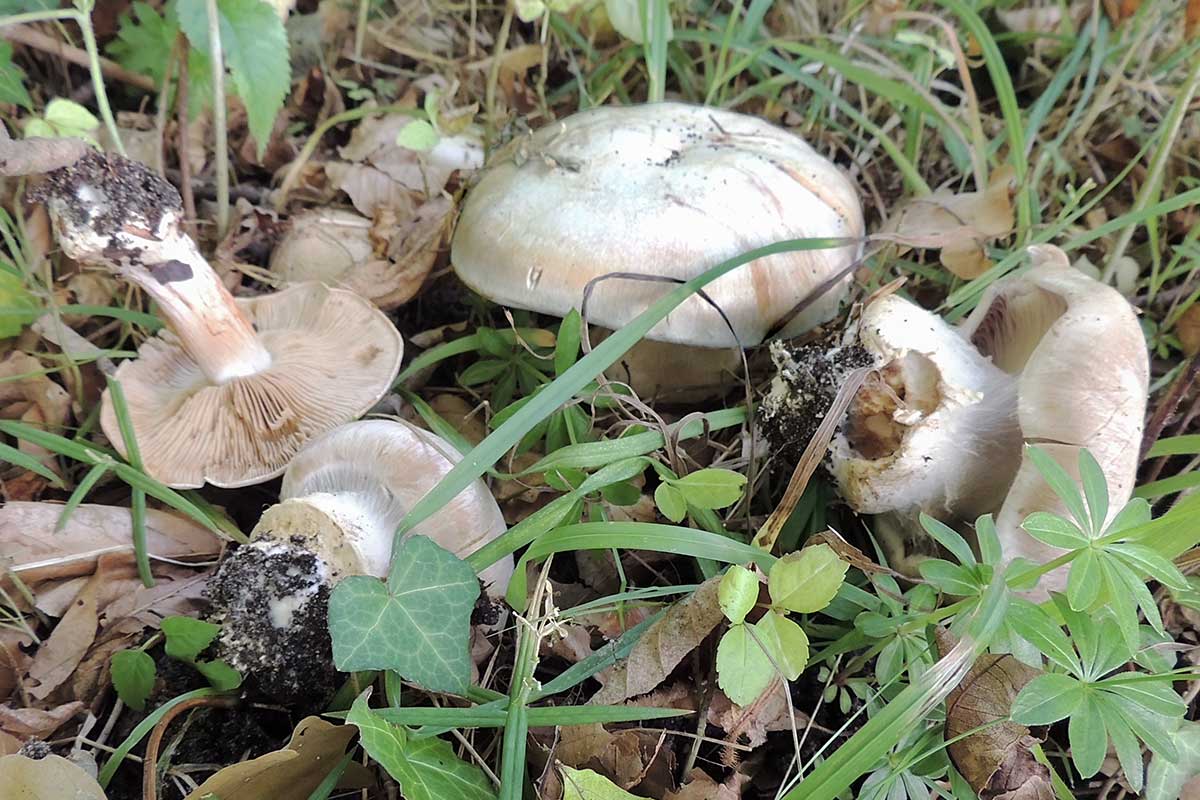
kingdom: Fungi
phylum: Basidiomycota
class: Agaricomycetes
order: Agaricales
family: Cortinariaceae
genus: Cortinarius
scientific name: Cortinarius foetens
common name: stribet slørhat
